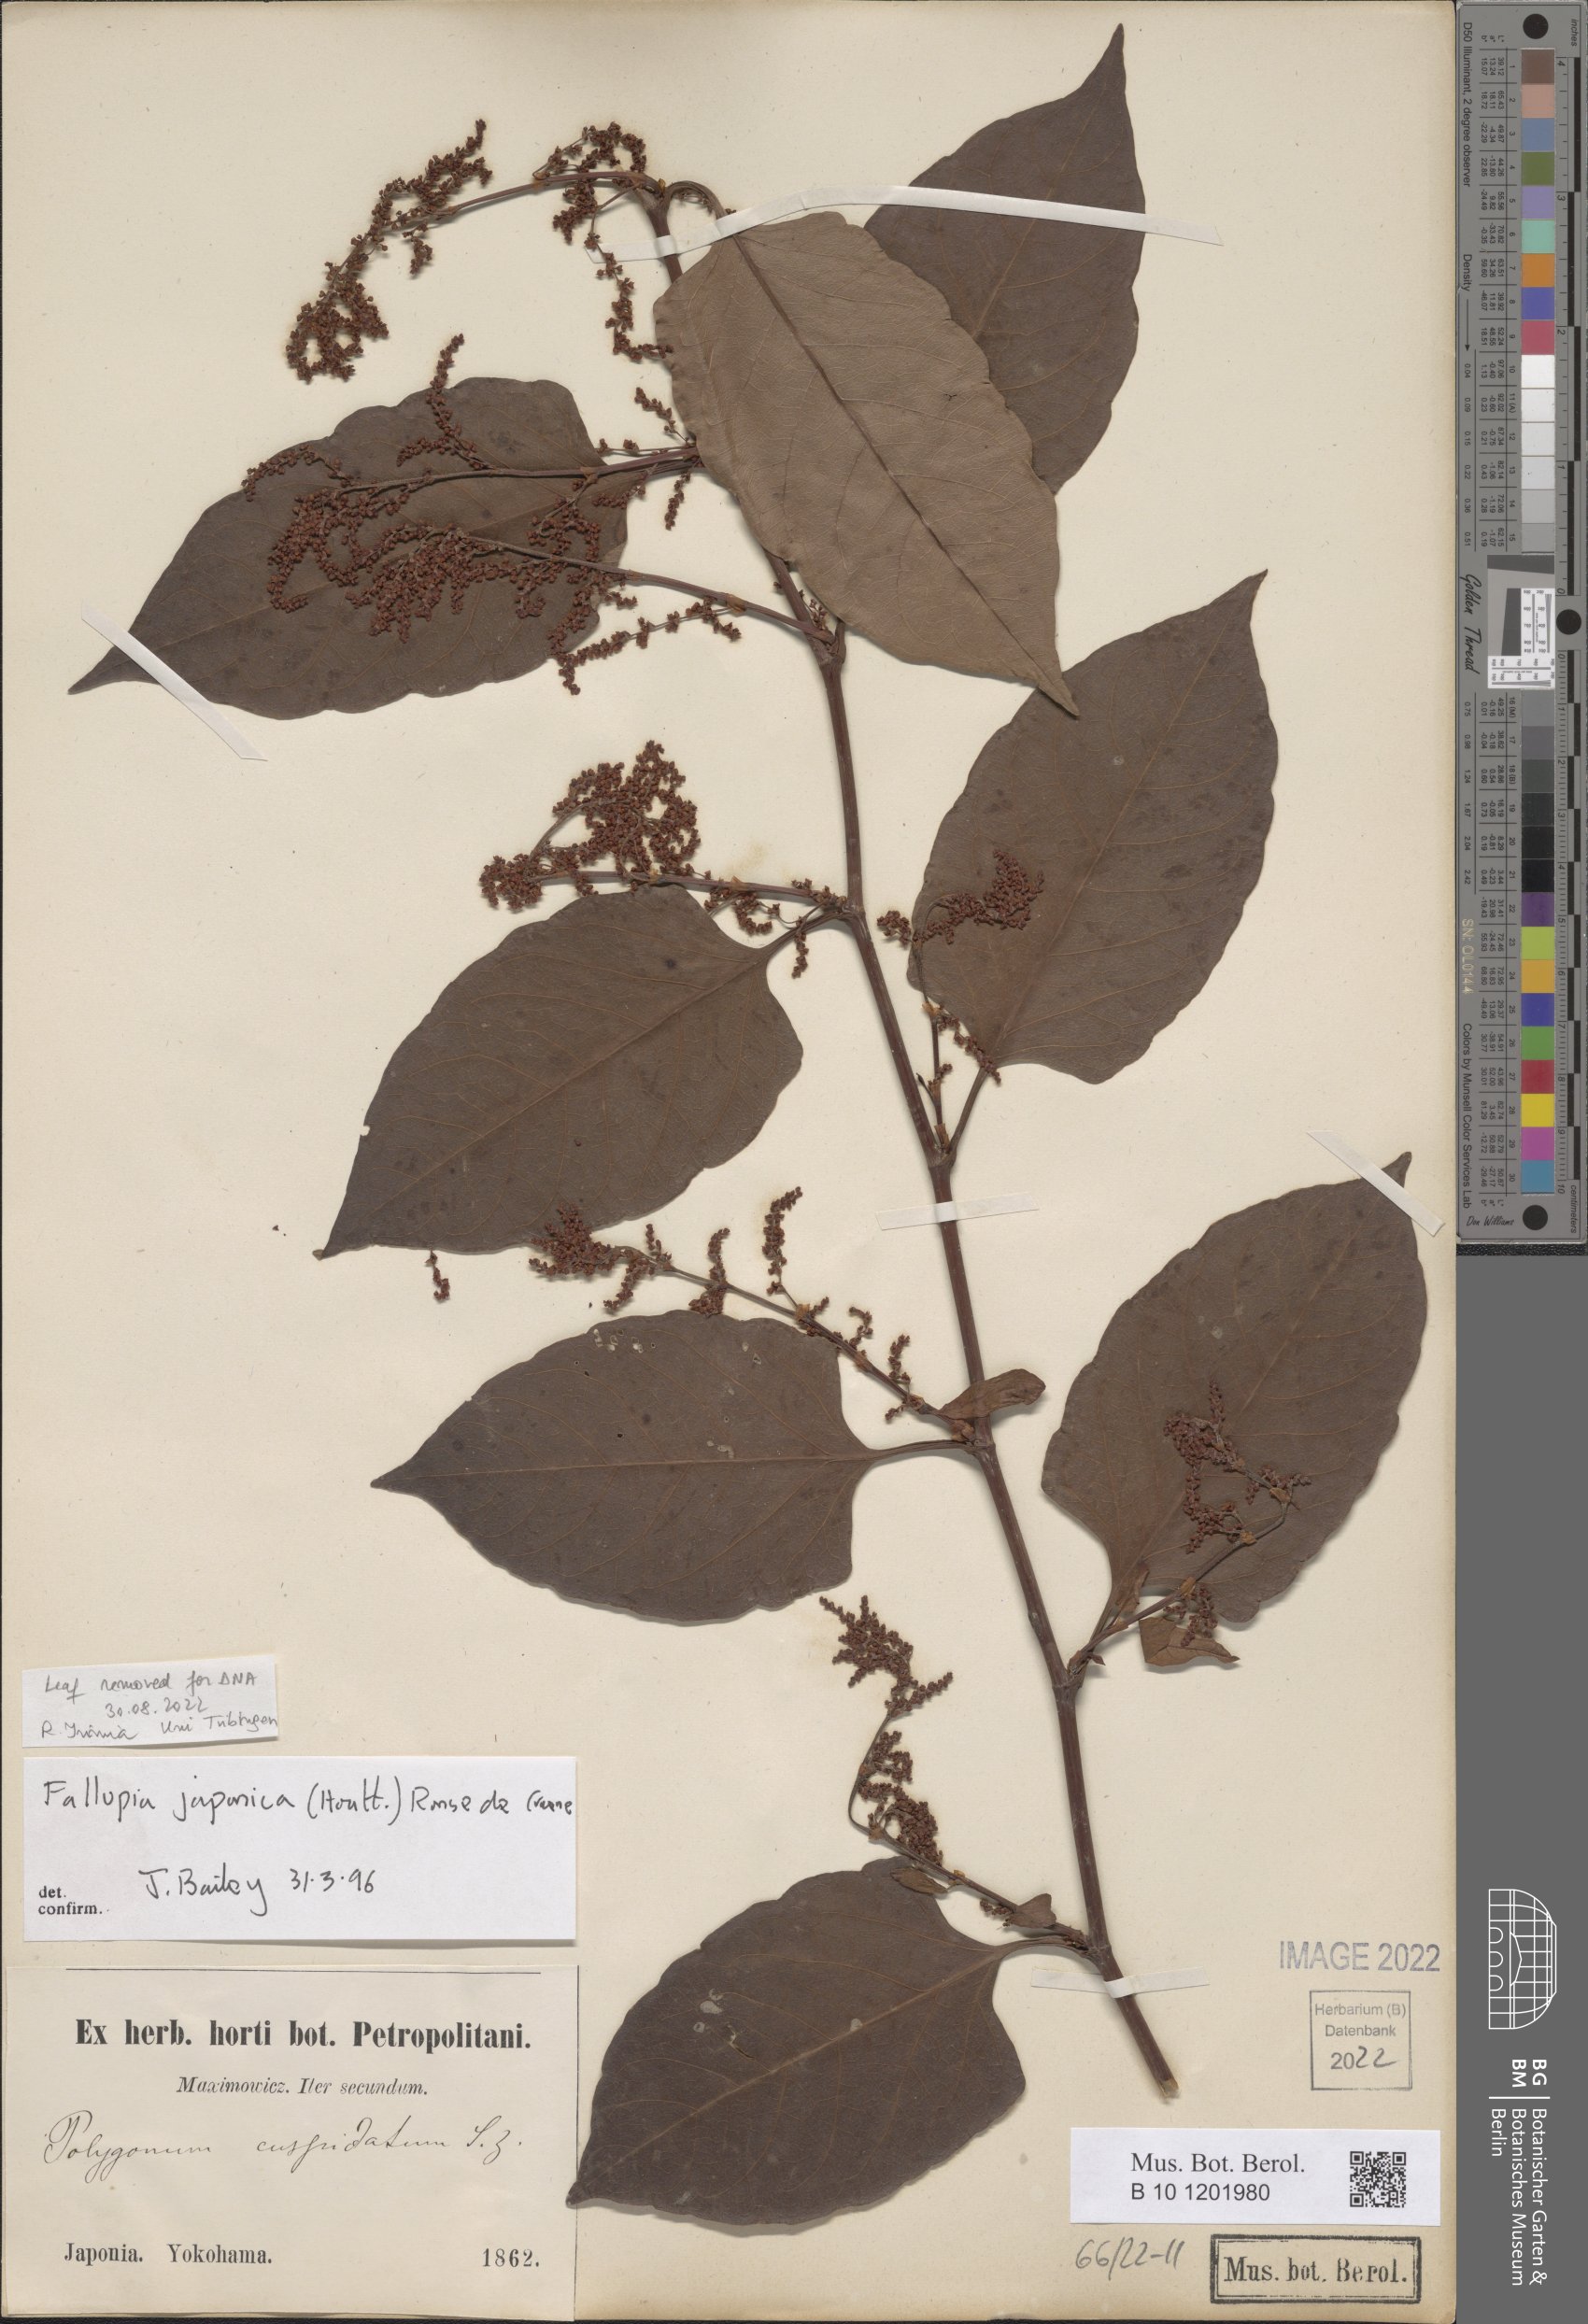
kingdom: Plantae
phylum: Tracheophyta
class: Magnoliopsida
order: Caryophyllales
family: Polygonaceae
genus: Reynoutria
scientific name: Reynoutria japonica
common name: Japanese knotweed
